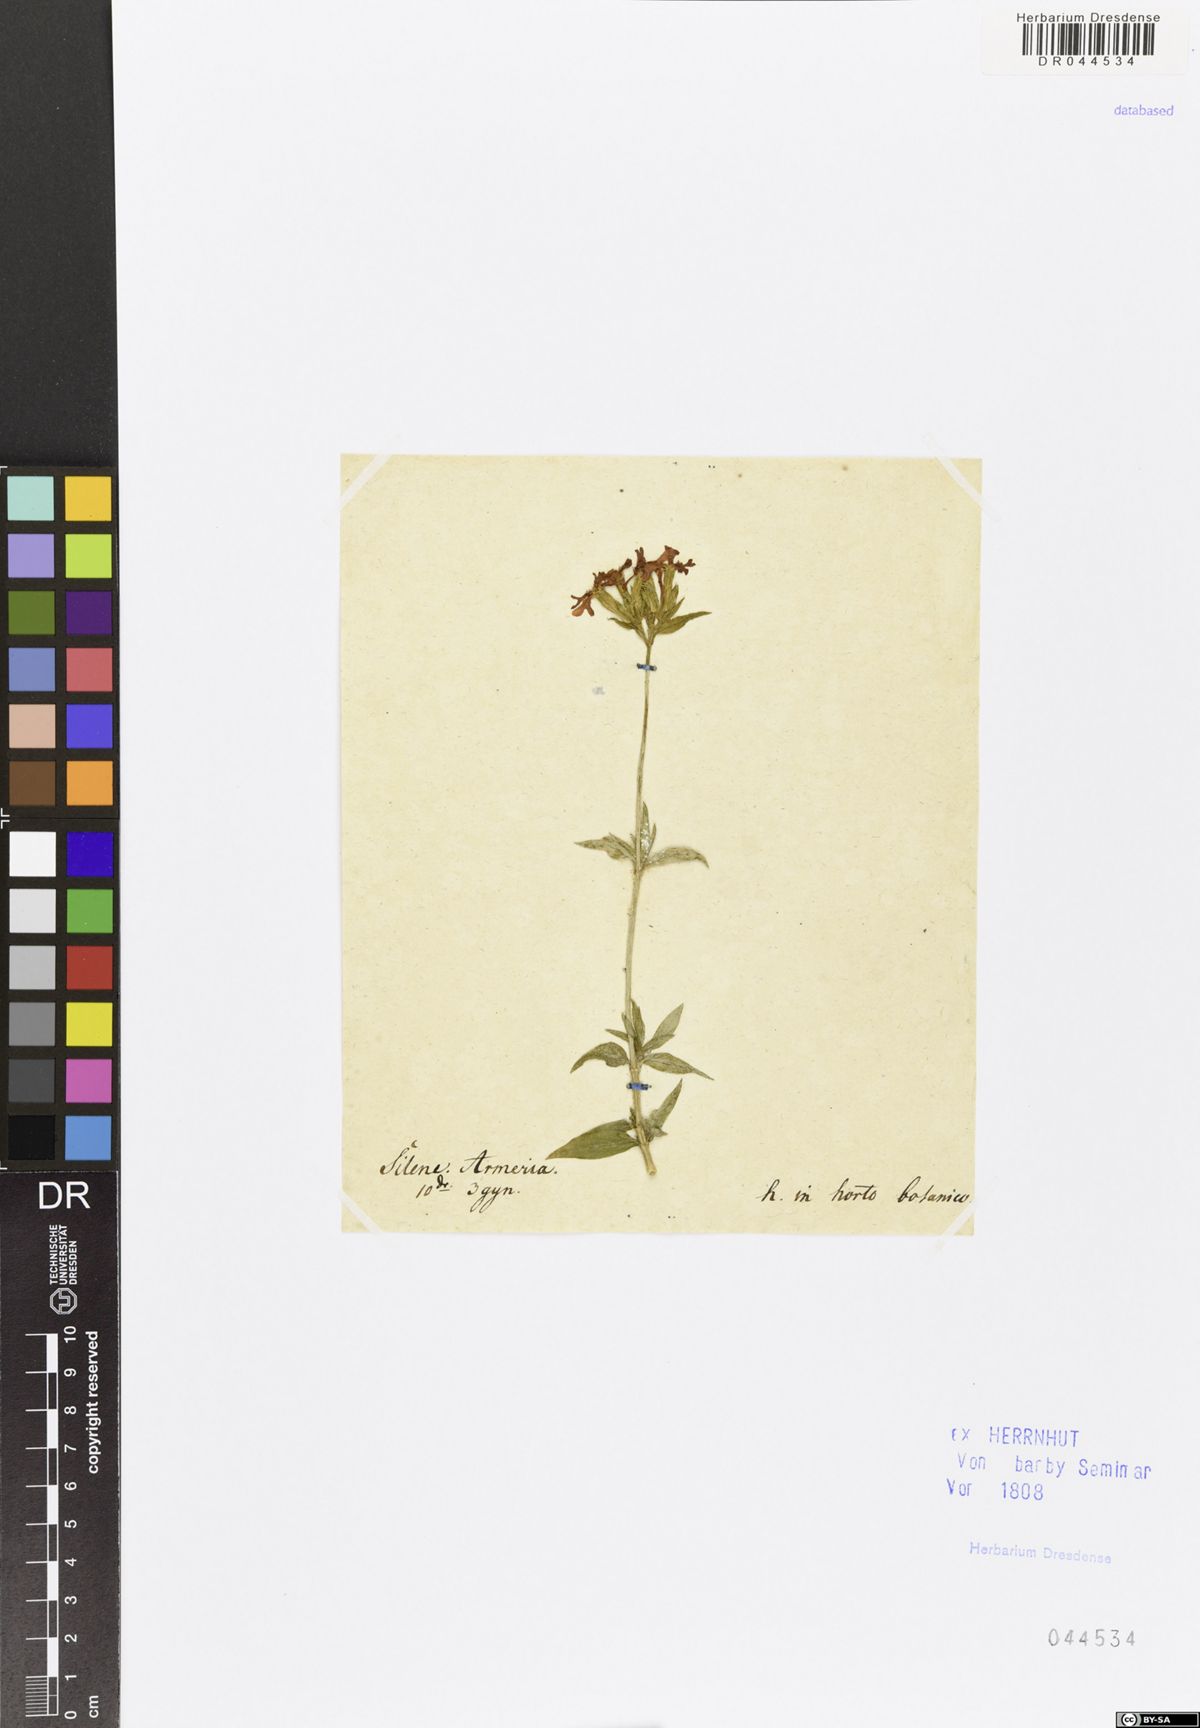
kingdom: Plantae
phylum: Tracheophyta
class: Magnoliopsida
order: Caryophyllales
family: Caryophyllaceae
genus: Atocion
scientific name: Atocion armeria
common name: Sweet william catchfly
